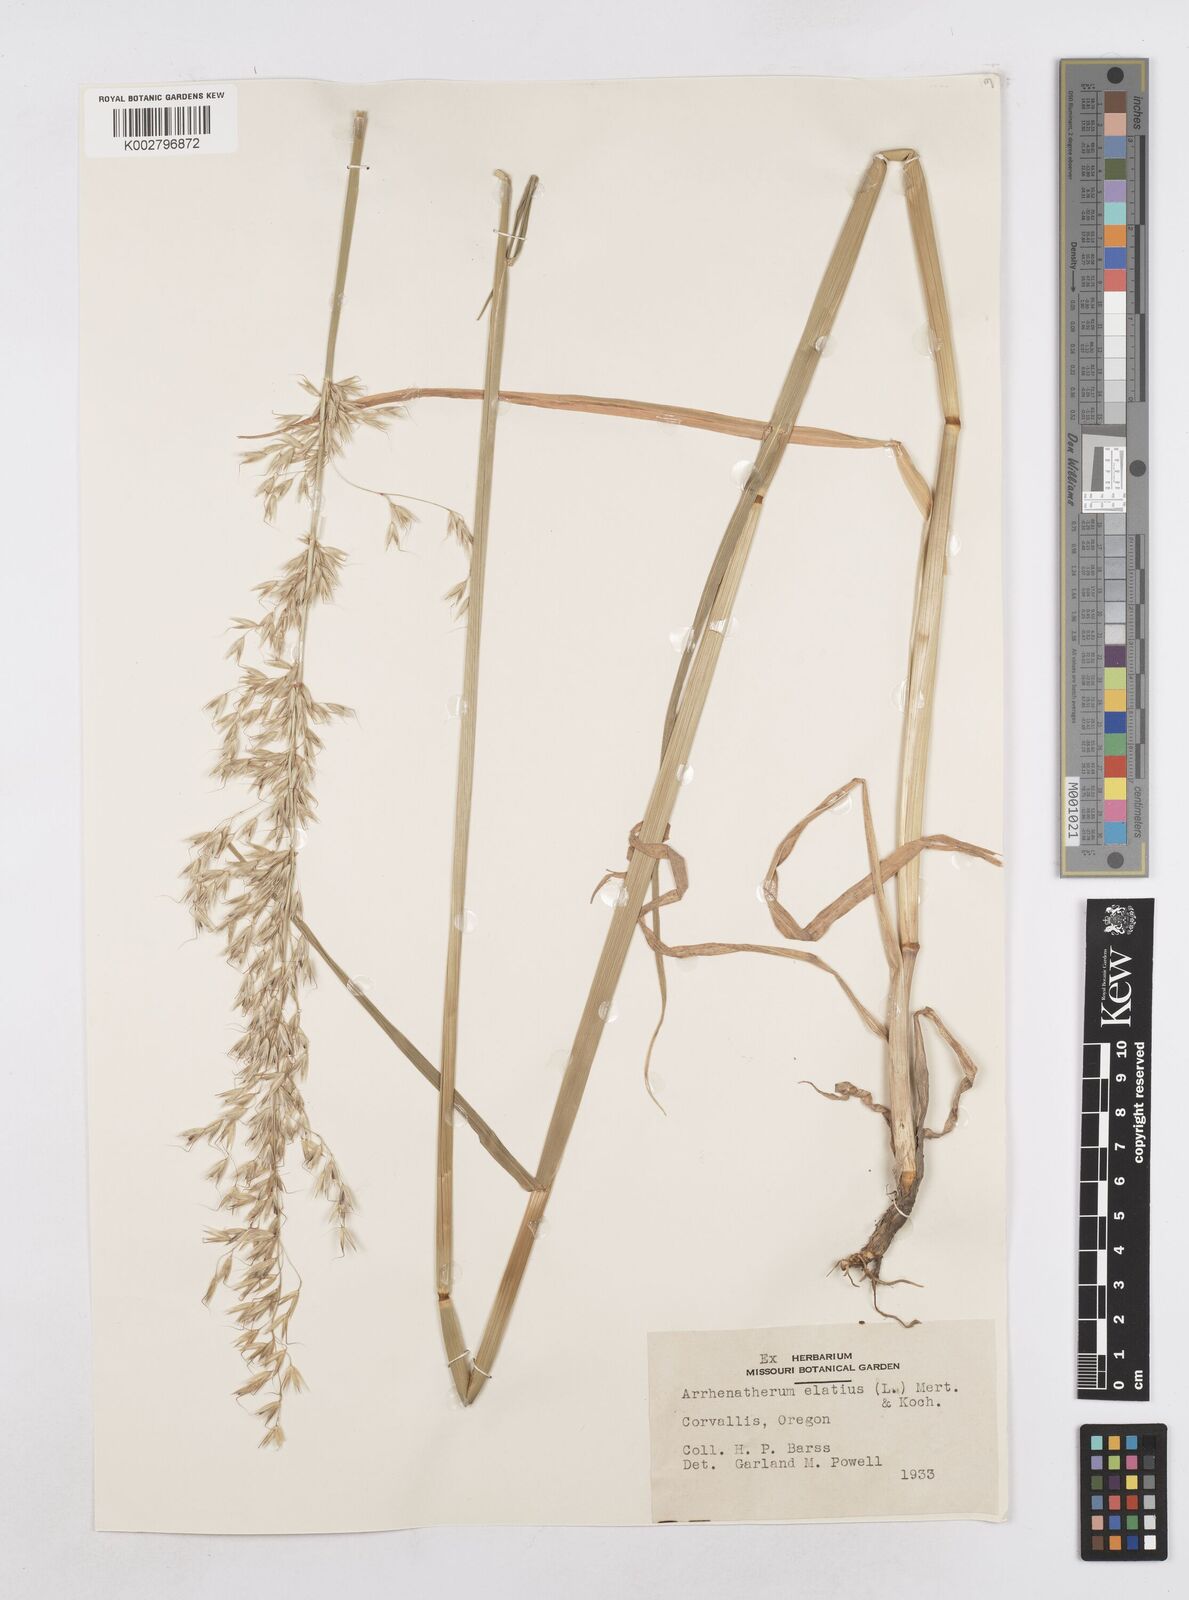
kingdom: Plantae
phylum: Tracheophyta
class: Liliopsida
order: Poales
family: Poaceae
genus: Arrhenatherum
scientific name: Arrhenatherum elatius
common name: Tall oatgrass
